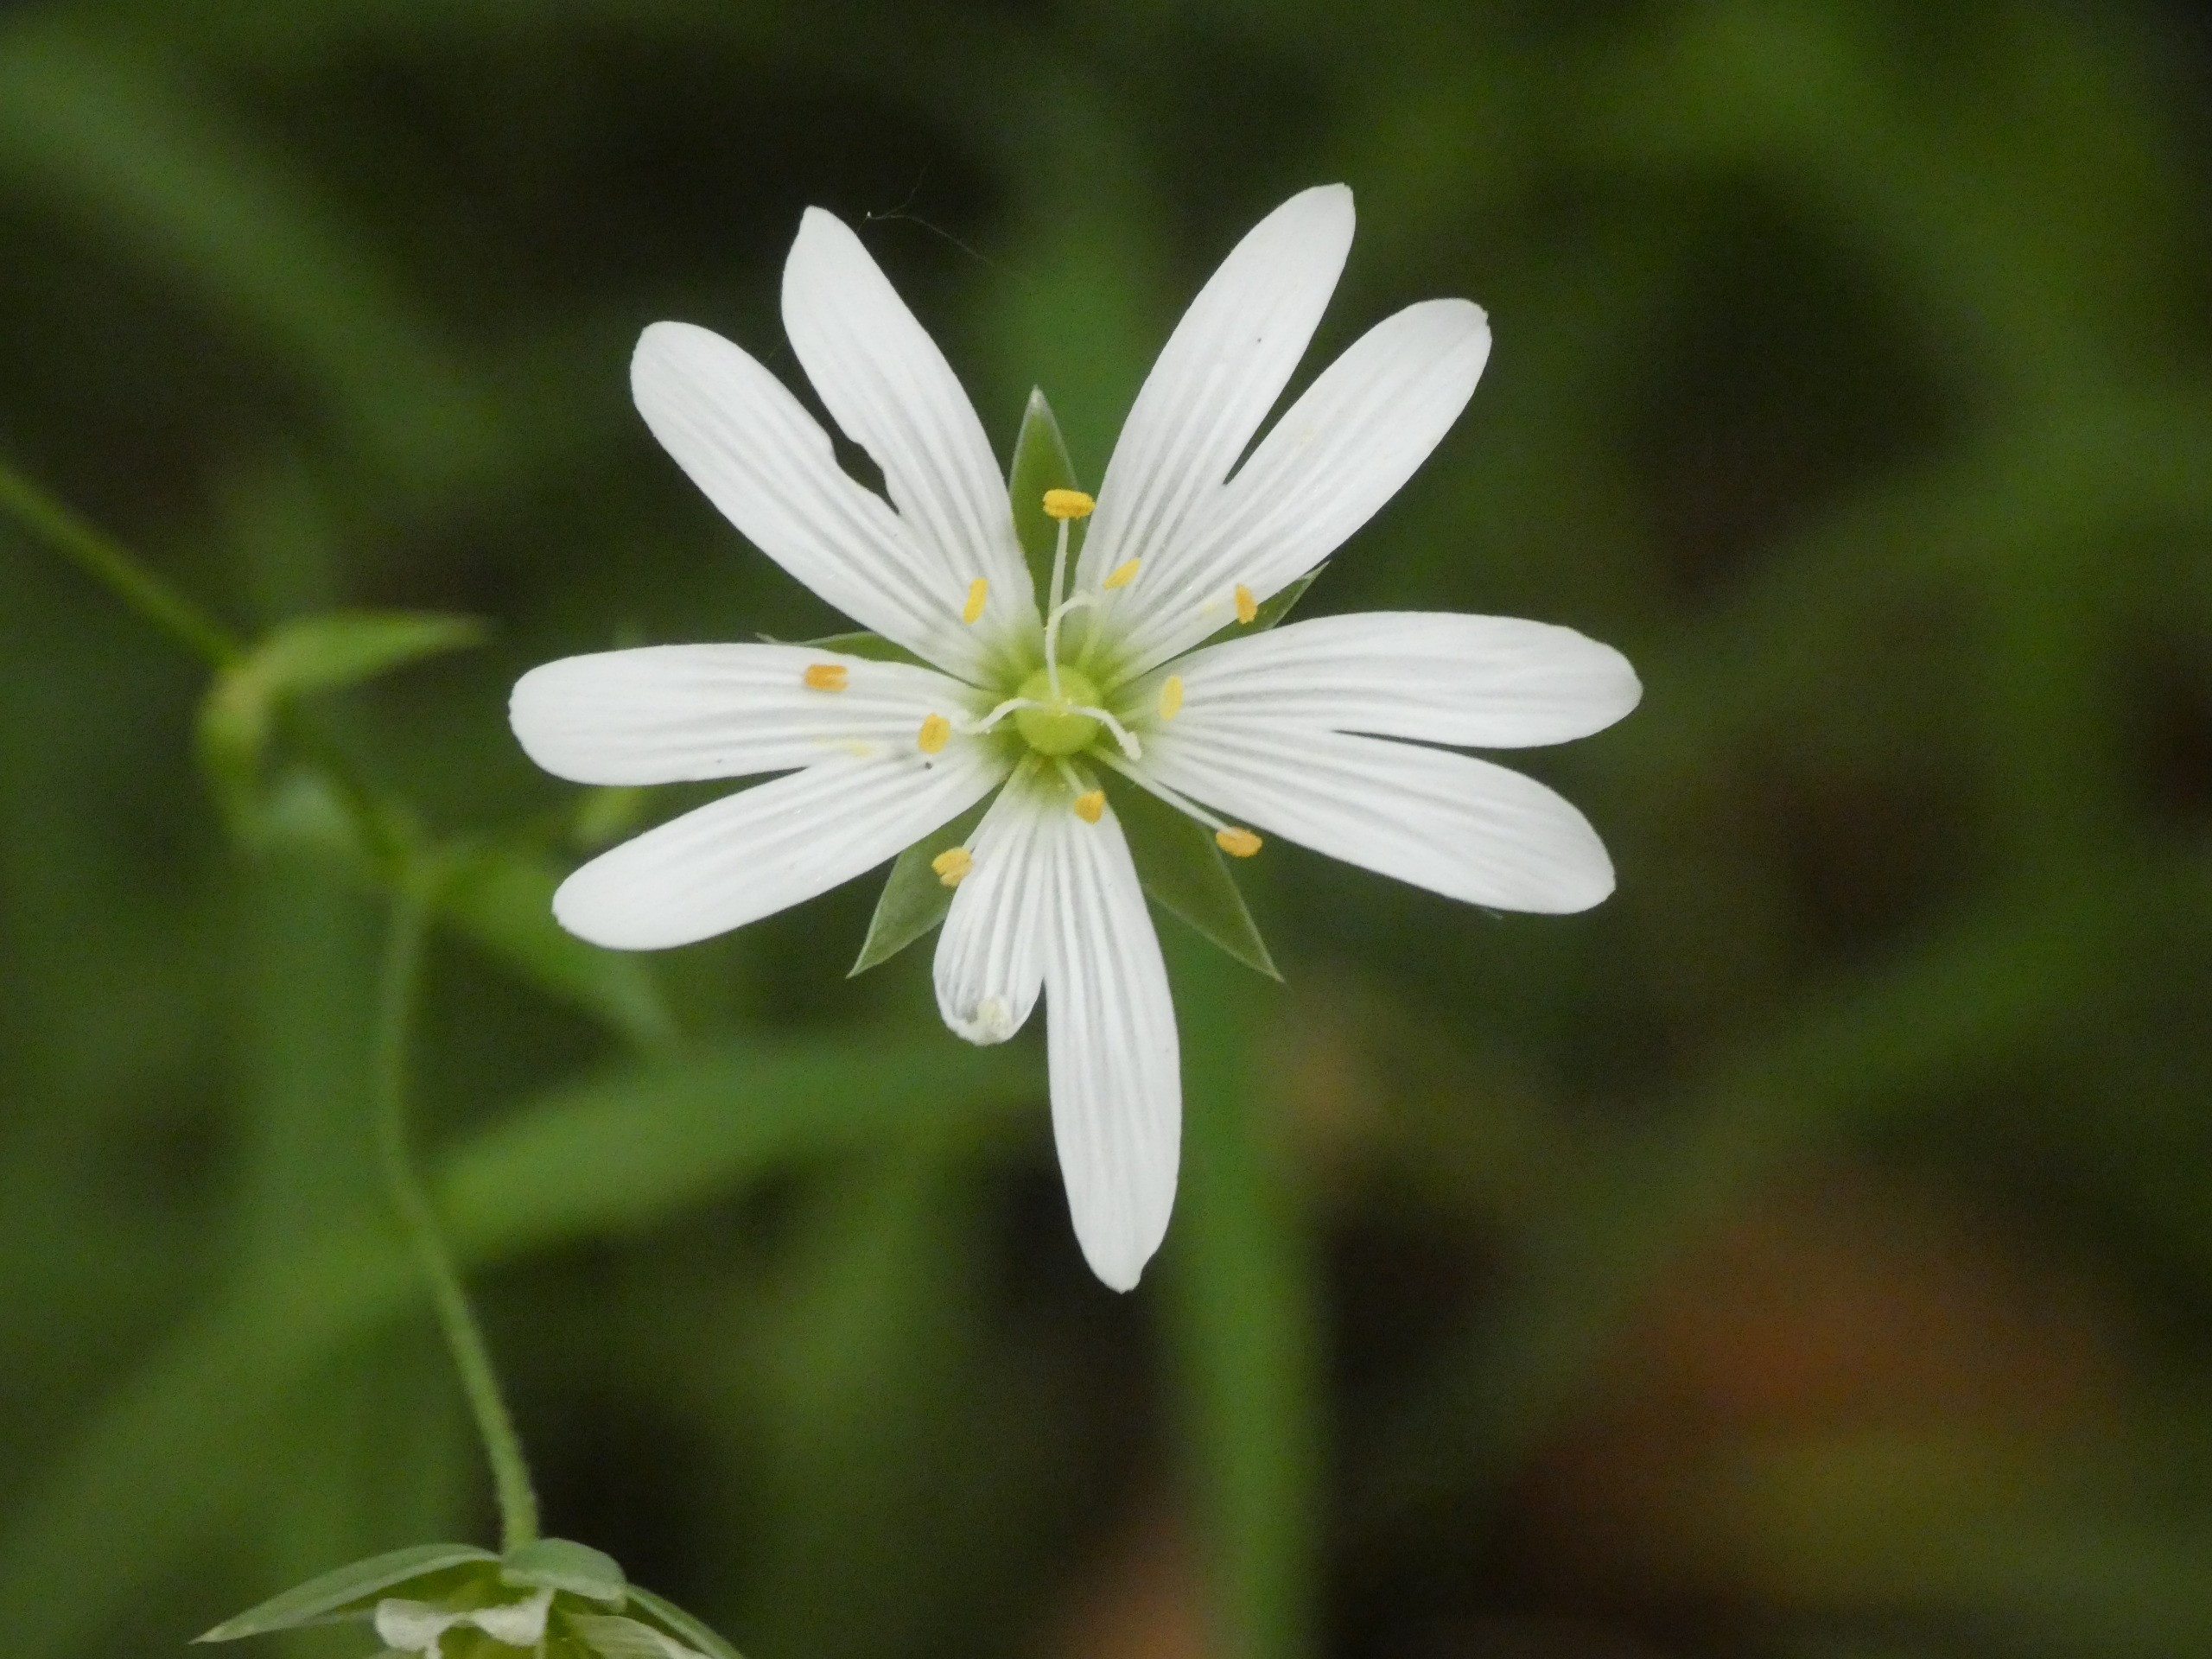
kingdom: Plantae
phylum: Tracheophyta
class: Magnoliopsida
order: Caryophyllales
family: Caryophyllaceae
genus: Rabelera
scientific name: Rabelera holostea
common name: Stor fladstjerne
